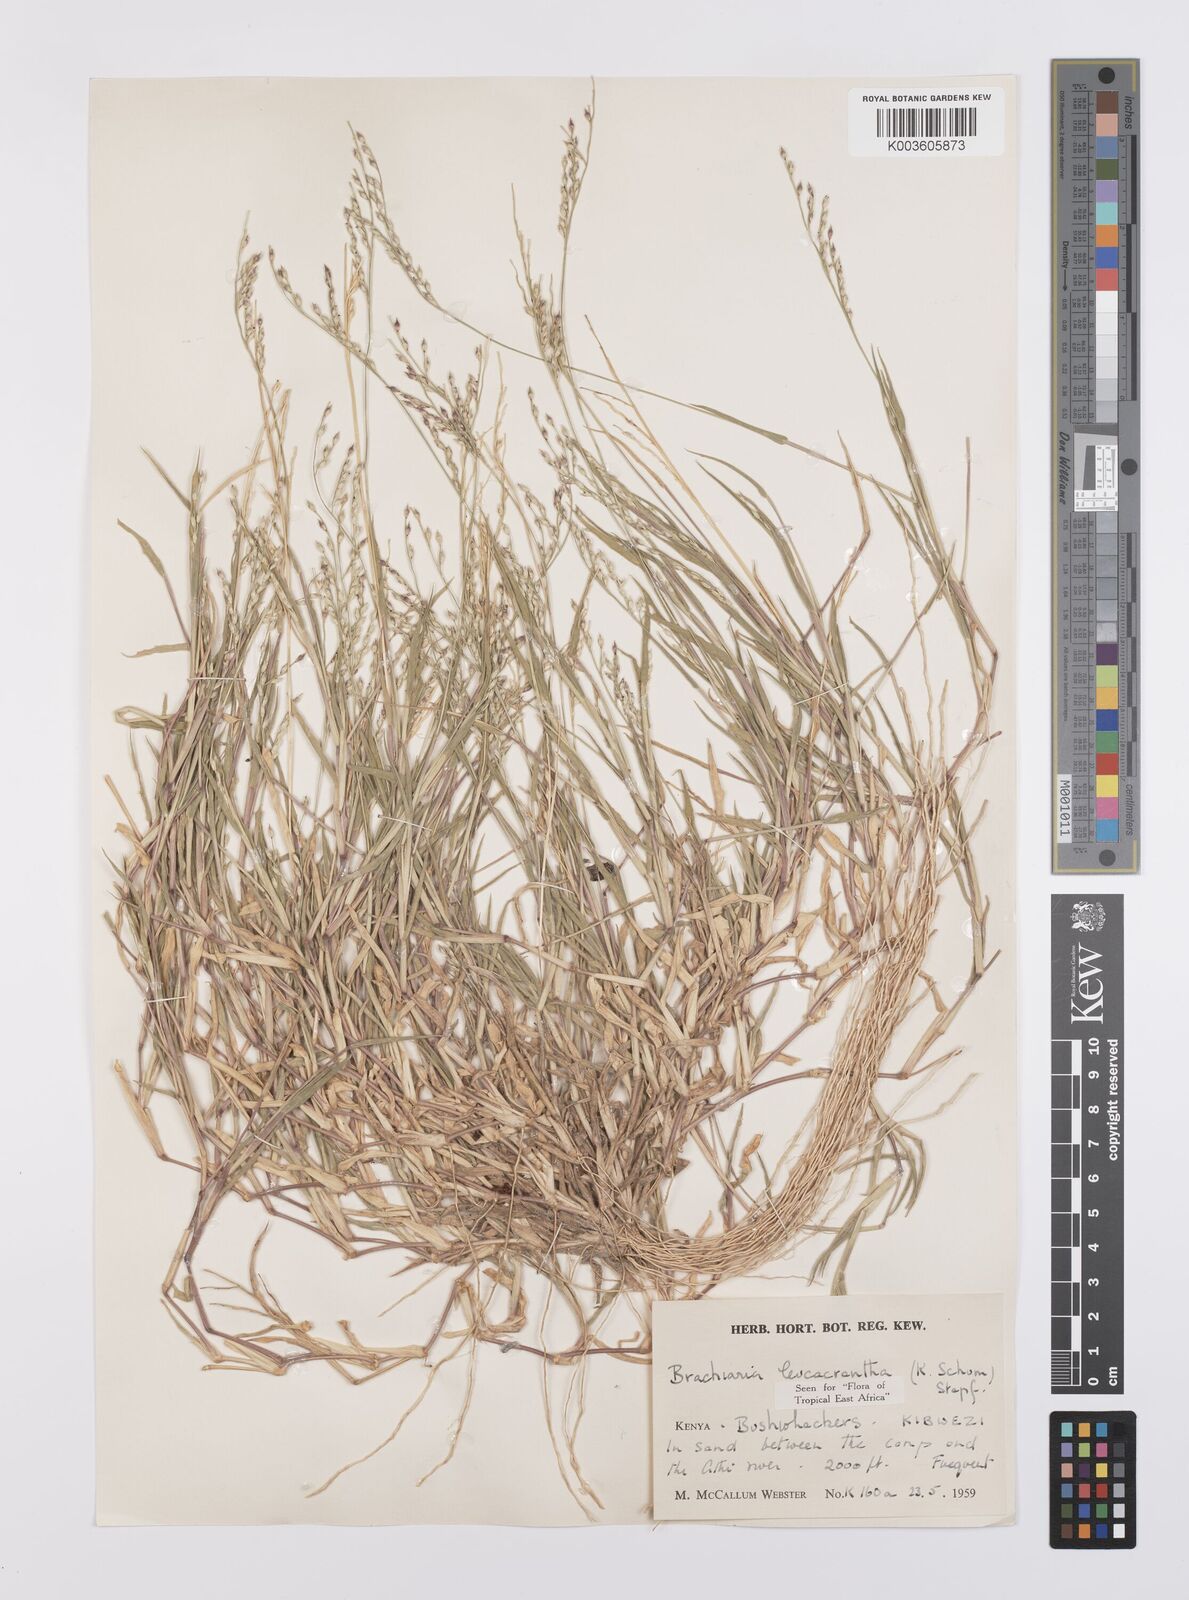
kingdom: Plantae
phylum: Tracheophyta
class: Liliopsida
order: Poales
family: Poaceae
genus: Urochloa
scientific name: Urochloa xantholeuca
